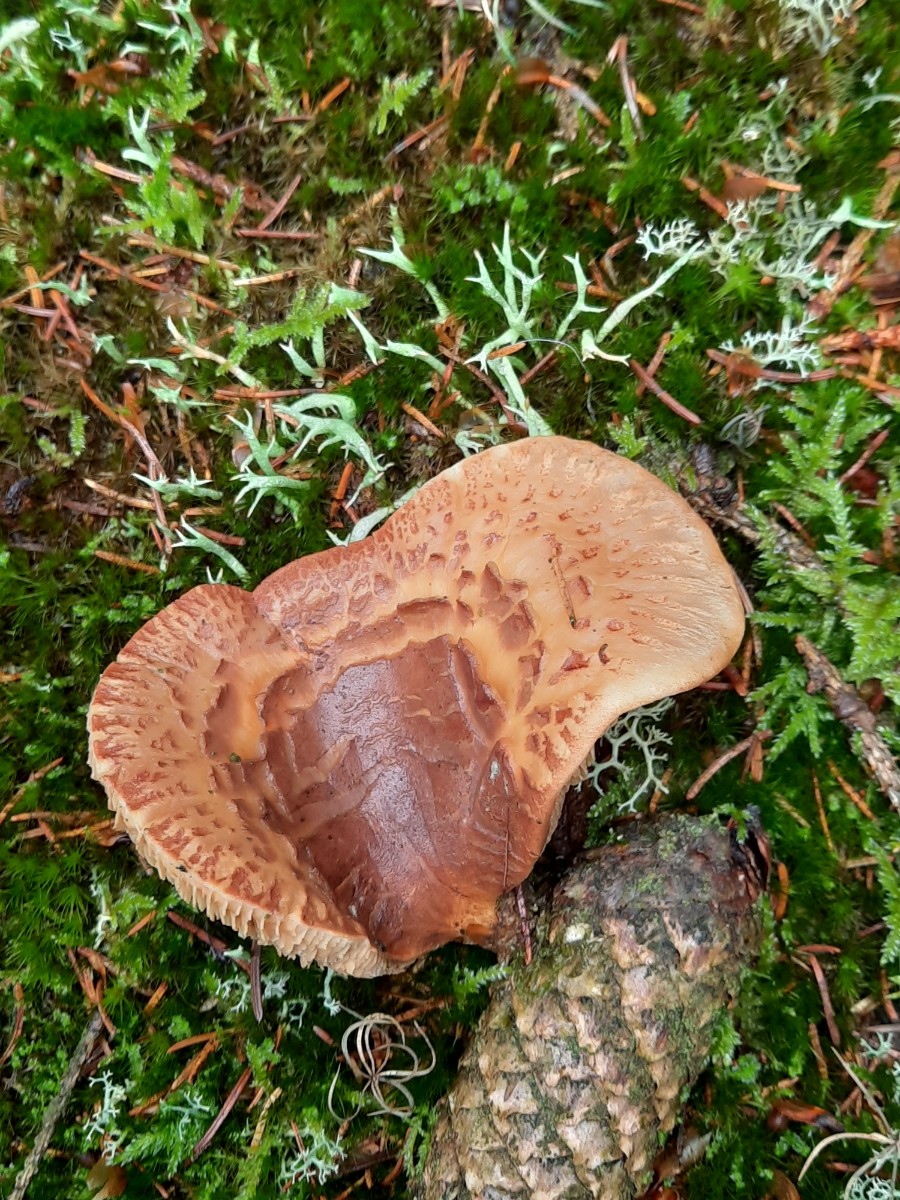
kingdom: Fungi
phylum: Basidiomycota
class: Agaricomycetes
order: Boletales
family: Tapinellaceae
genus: Tapinella
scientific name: Tapinella atrotomentosa
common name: sortfiltet viftesvamp
